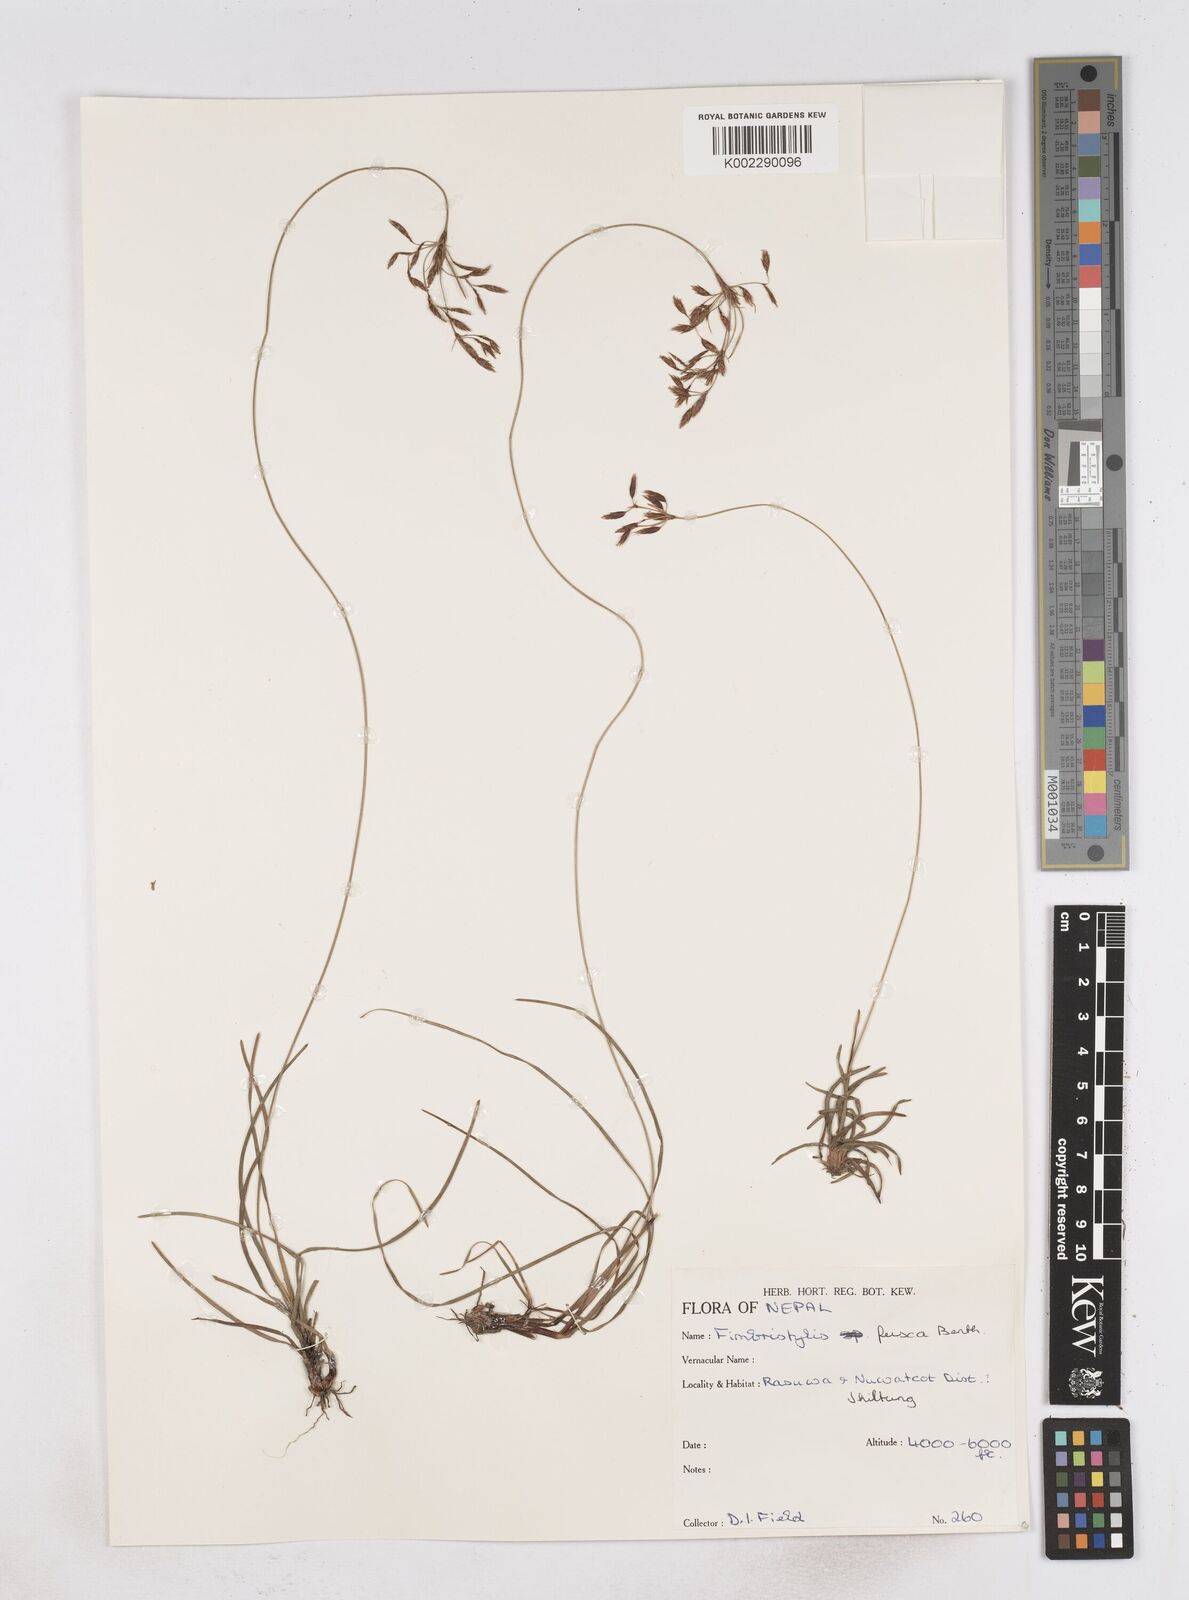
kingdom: Plantae
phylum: Tracheophyta
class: Liliopsida
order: Poales
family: Cyperaceae
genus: Fimbristylis
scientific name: Fimbristylis fusca
